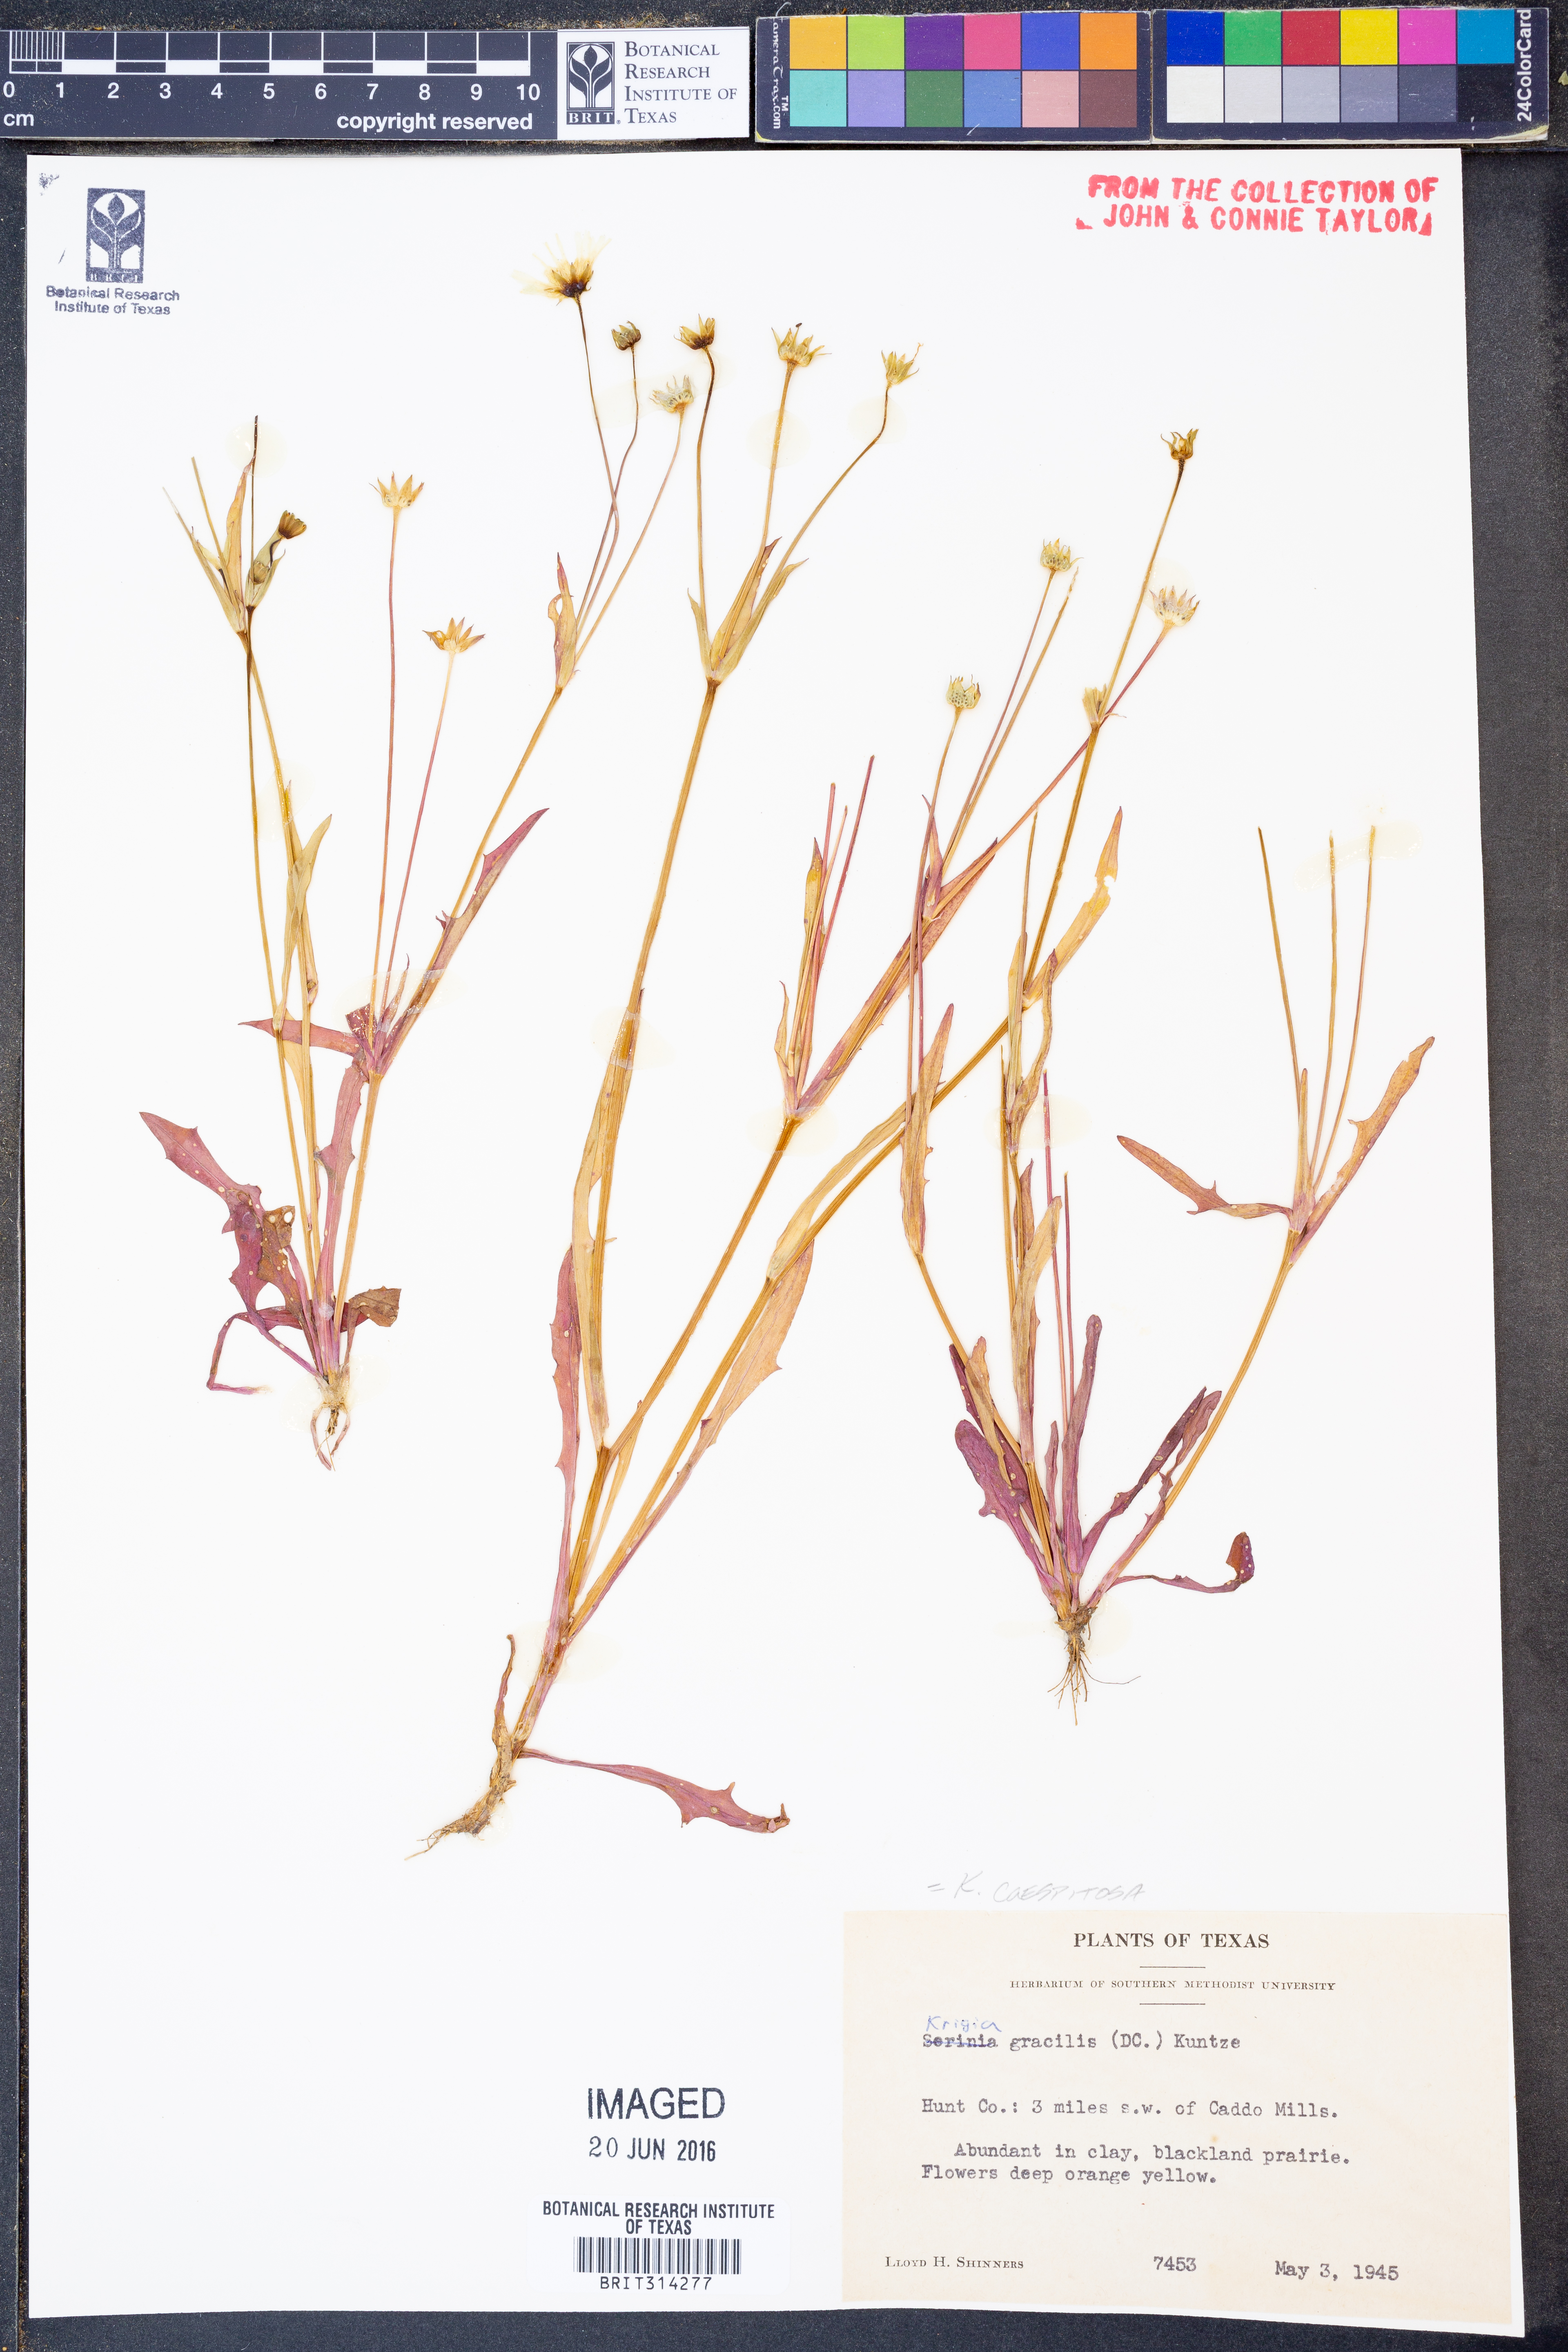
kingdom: Plantae
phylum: Tracheophyta
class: Magnoliopsida
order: Asterales
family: Asteraceae
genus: Krigia
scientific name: Krigia cespitosa
